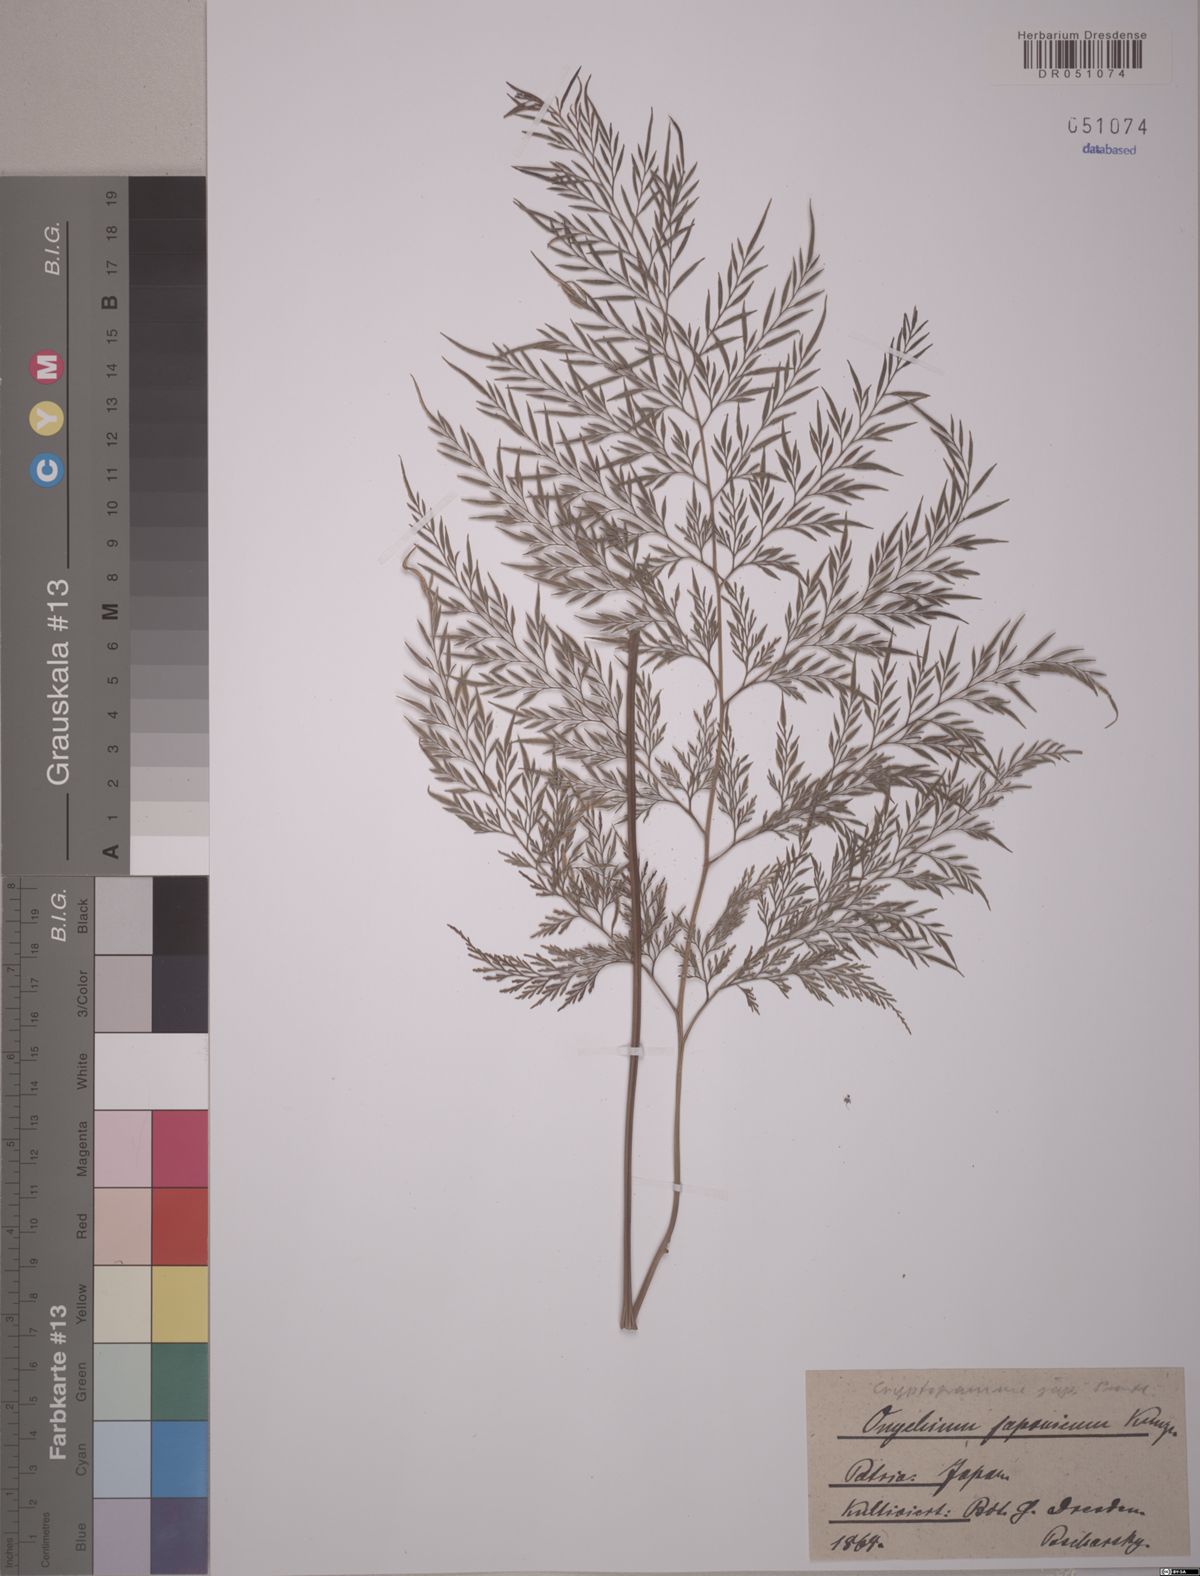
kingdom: Plantae
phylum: Tracheophyta
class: Polypodiopsida
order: Polypodiales
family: Pteridaceae
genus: Onychium
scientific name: Onychium japonicum
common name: Carrot fern
